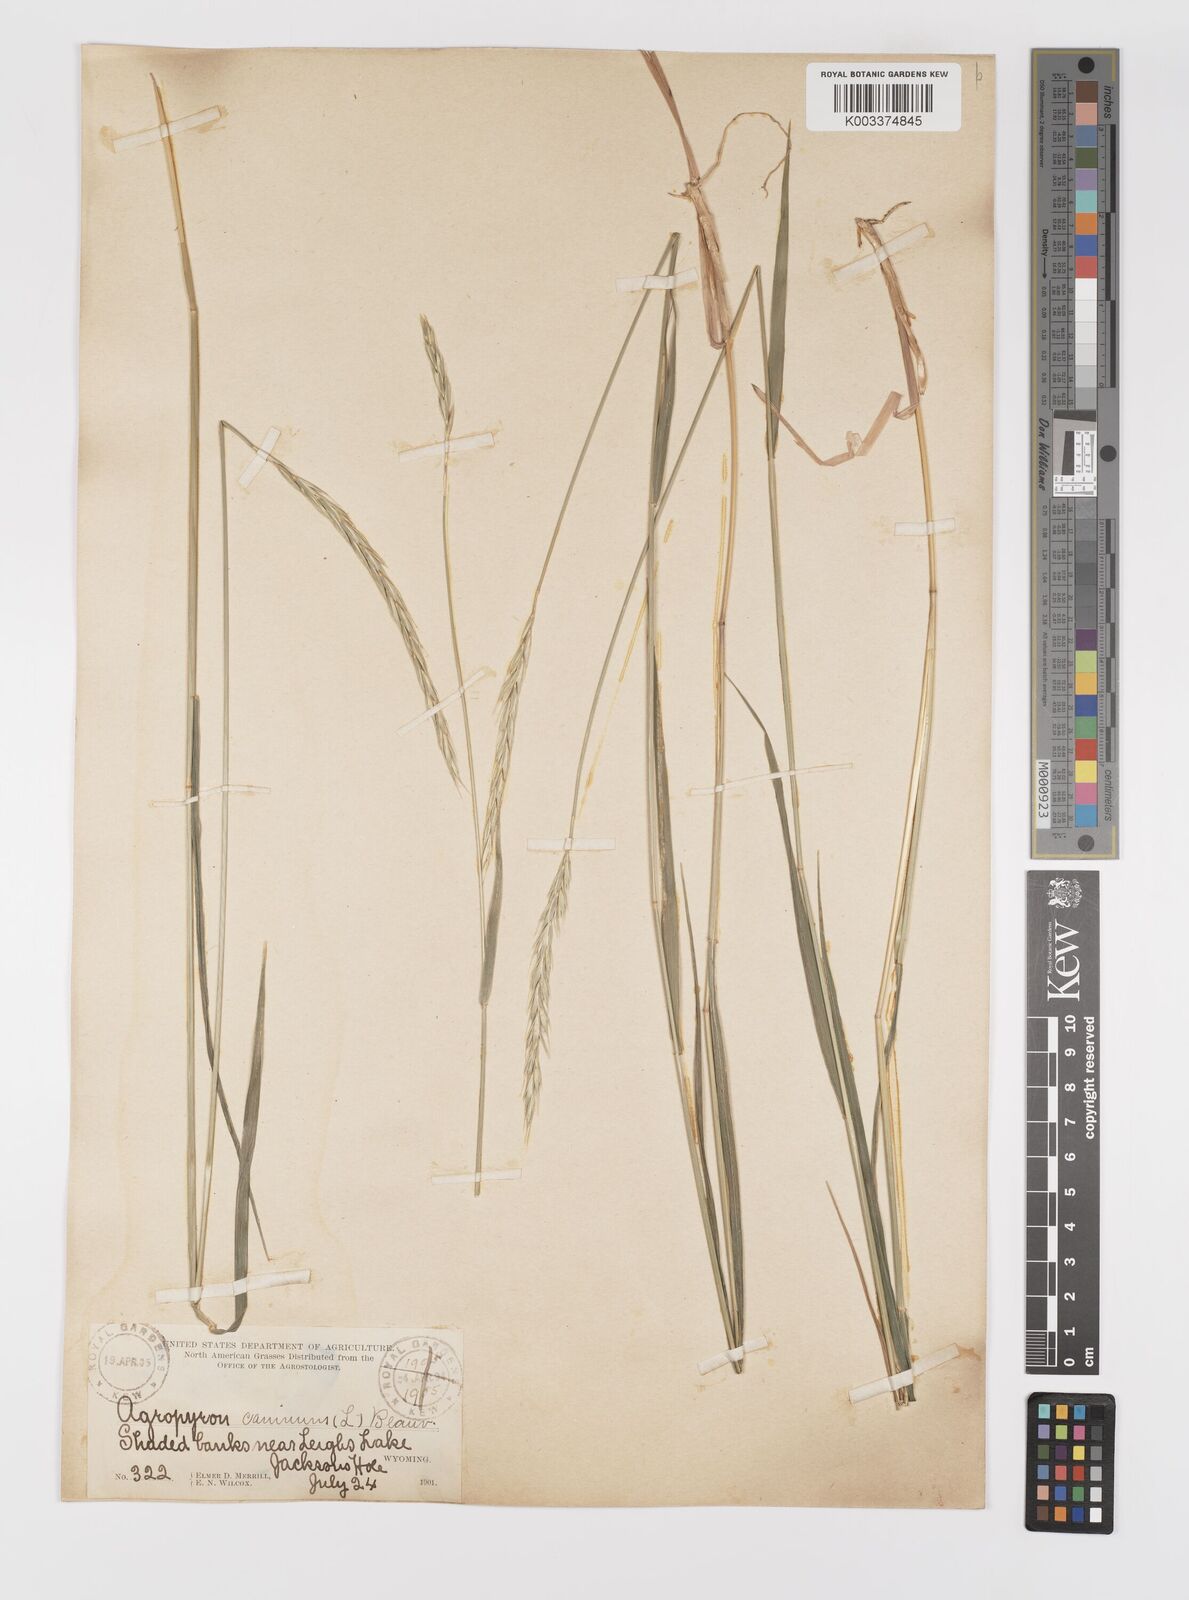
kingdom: Plantae
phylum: Tracheophyta
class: Liliopsida
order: Poales
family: Poaceae
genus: Elymus
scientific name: Elymus violaceus
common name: Arctic wheatgrass
